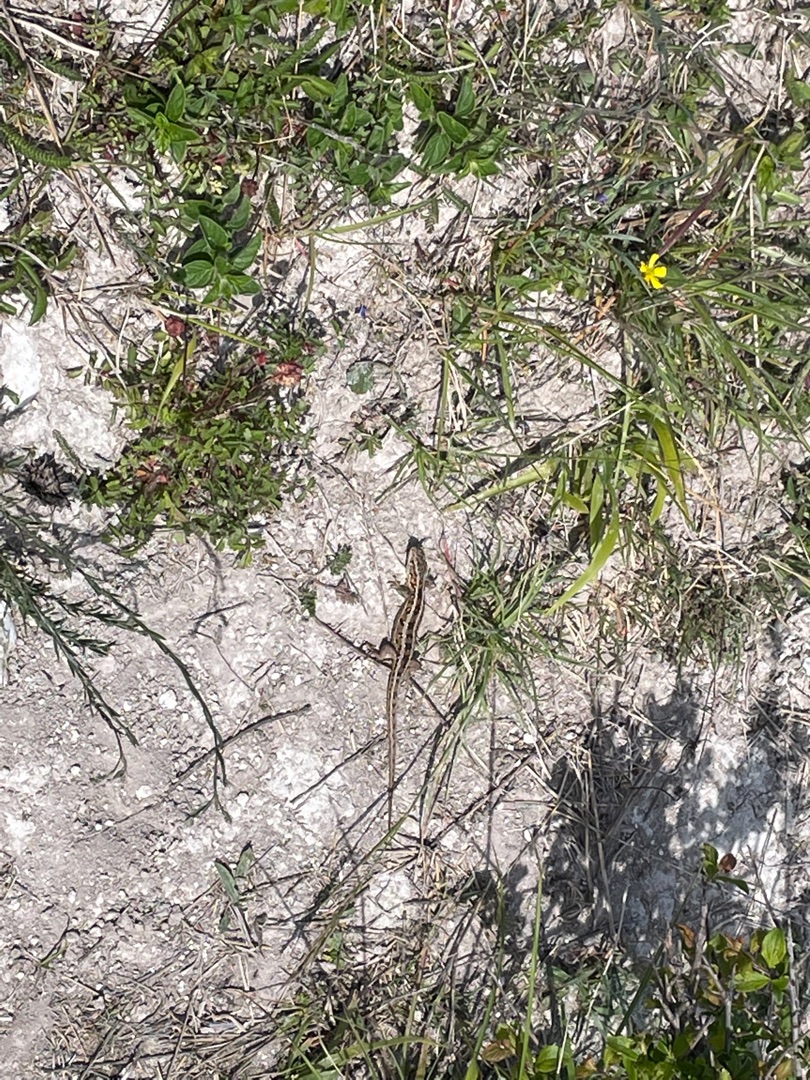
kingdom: Animalia
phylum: Chordata
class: Squamata
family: Lacertidae
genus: Lacerta
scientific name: Lacerta agilis
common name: Markfirben
